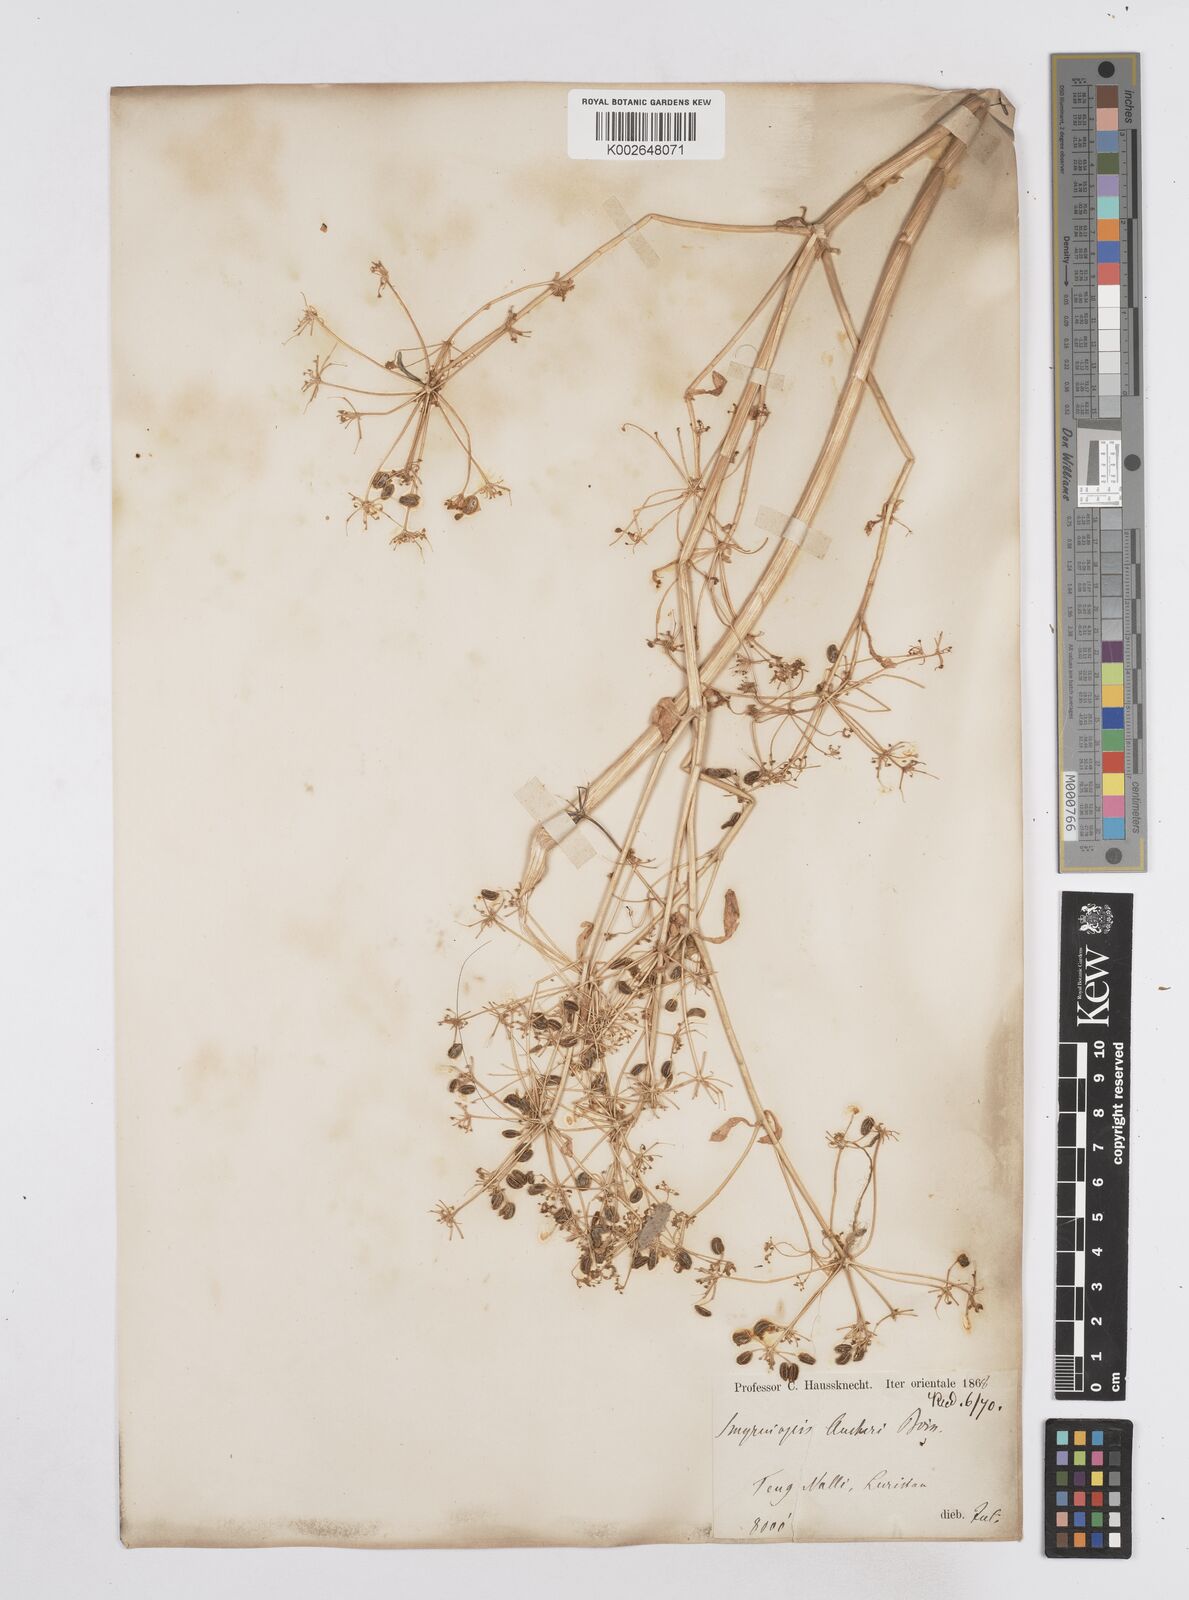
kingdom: Plantae
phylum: Tracheophyta
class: Magnoliopsida
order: Apiales
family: Apiaceae
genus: Smyrniopsis
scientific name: Smyrniopsis aucheri
